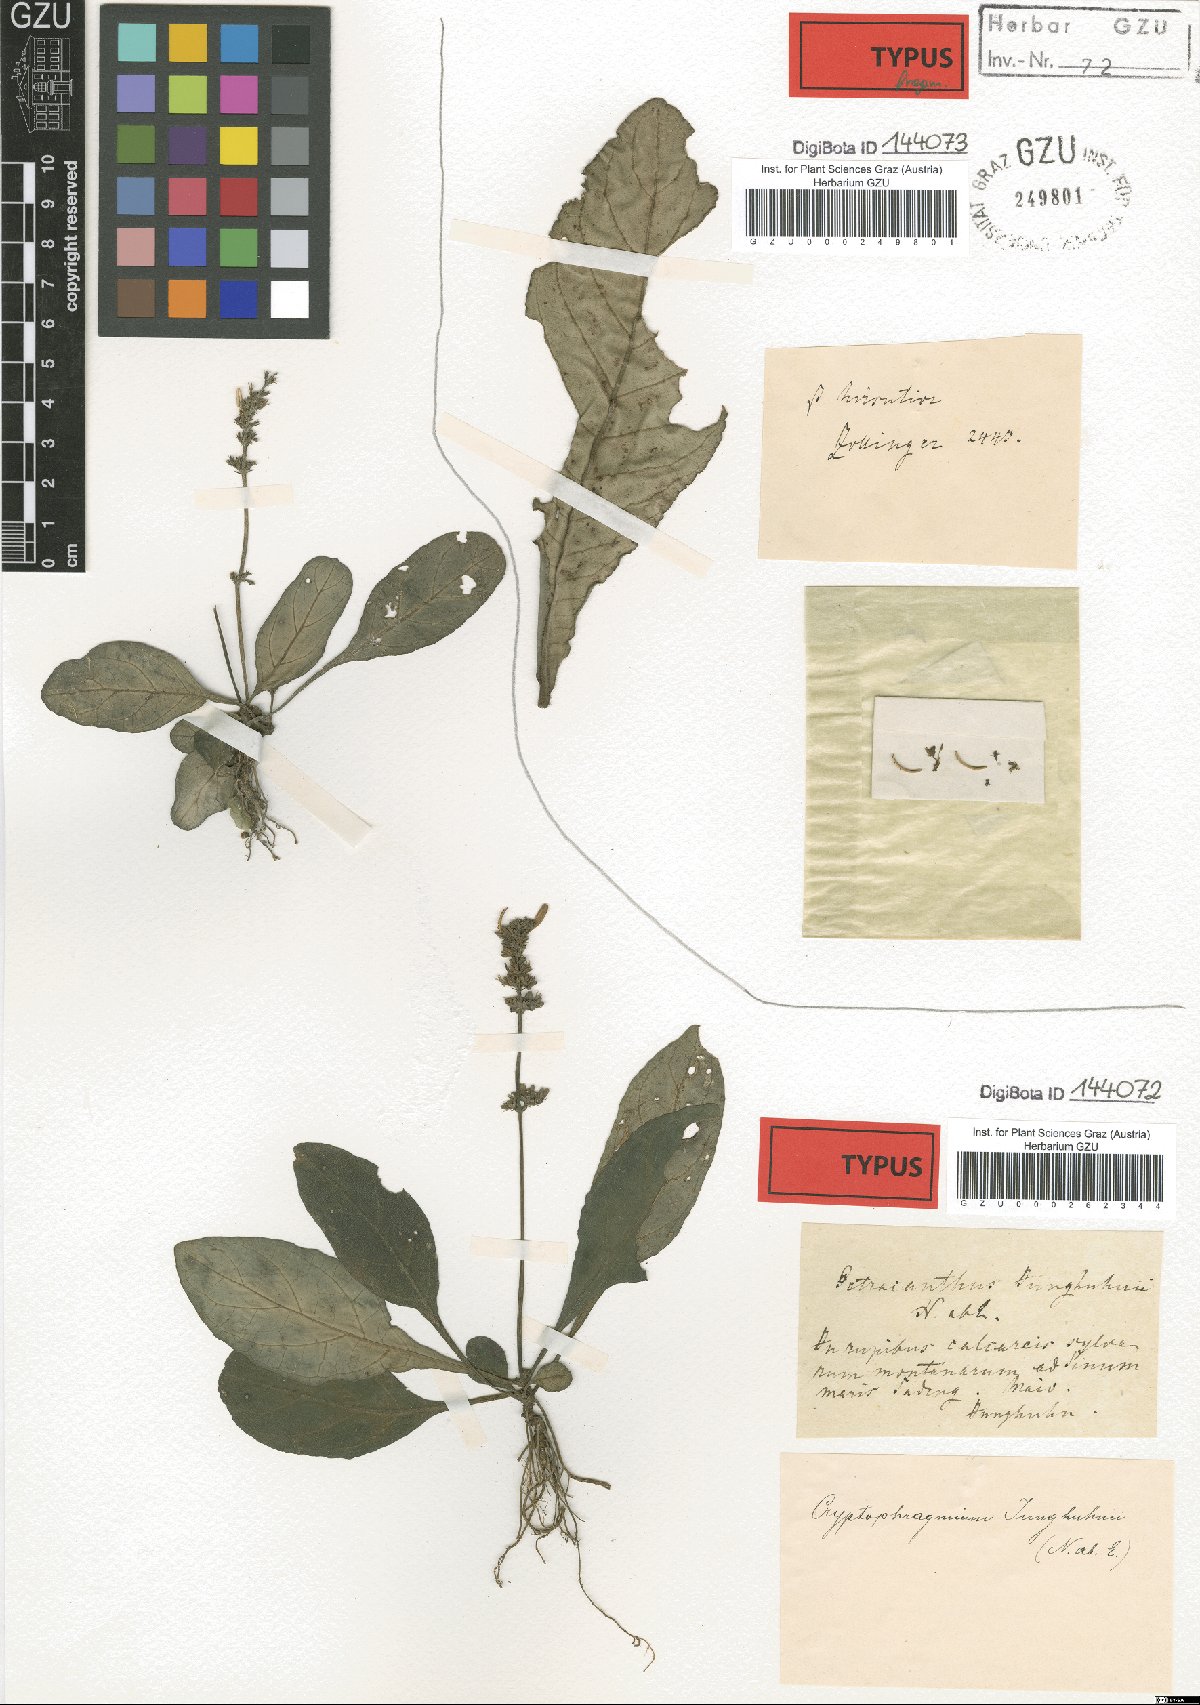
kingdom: Plantae
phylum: Tracheophyta
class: Magnoliopsida
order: Lamiales
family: Acanthaceae
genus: Gymnostachyum
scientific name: Gymnostachyum cumingianum
